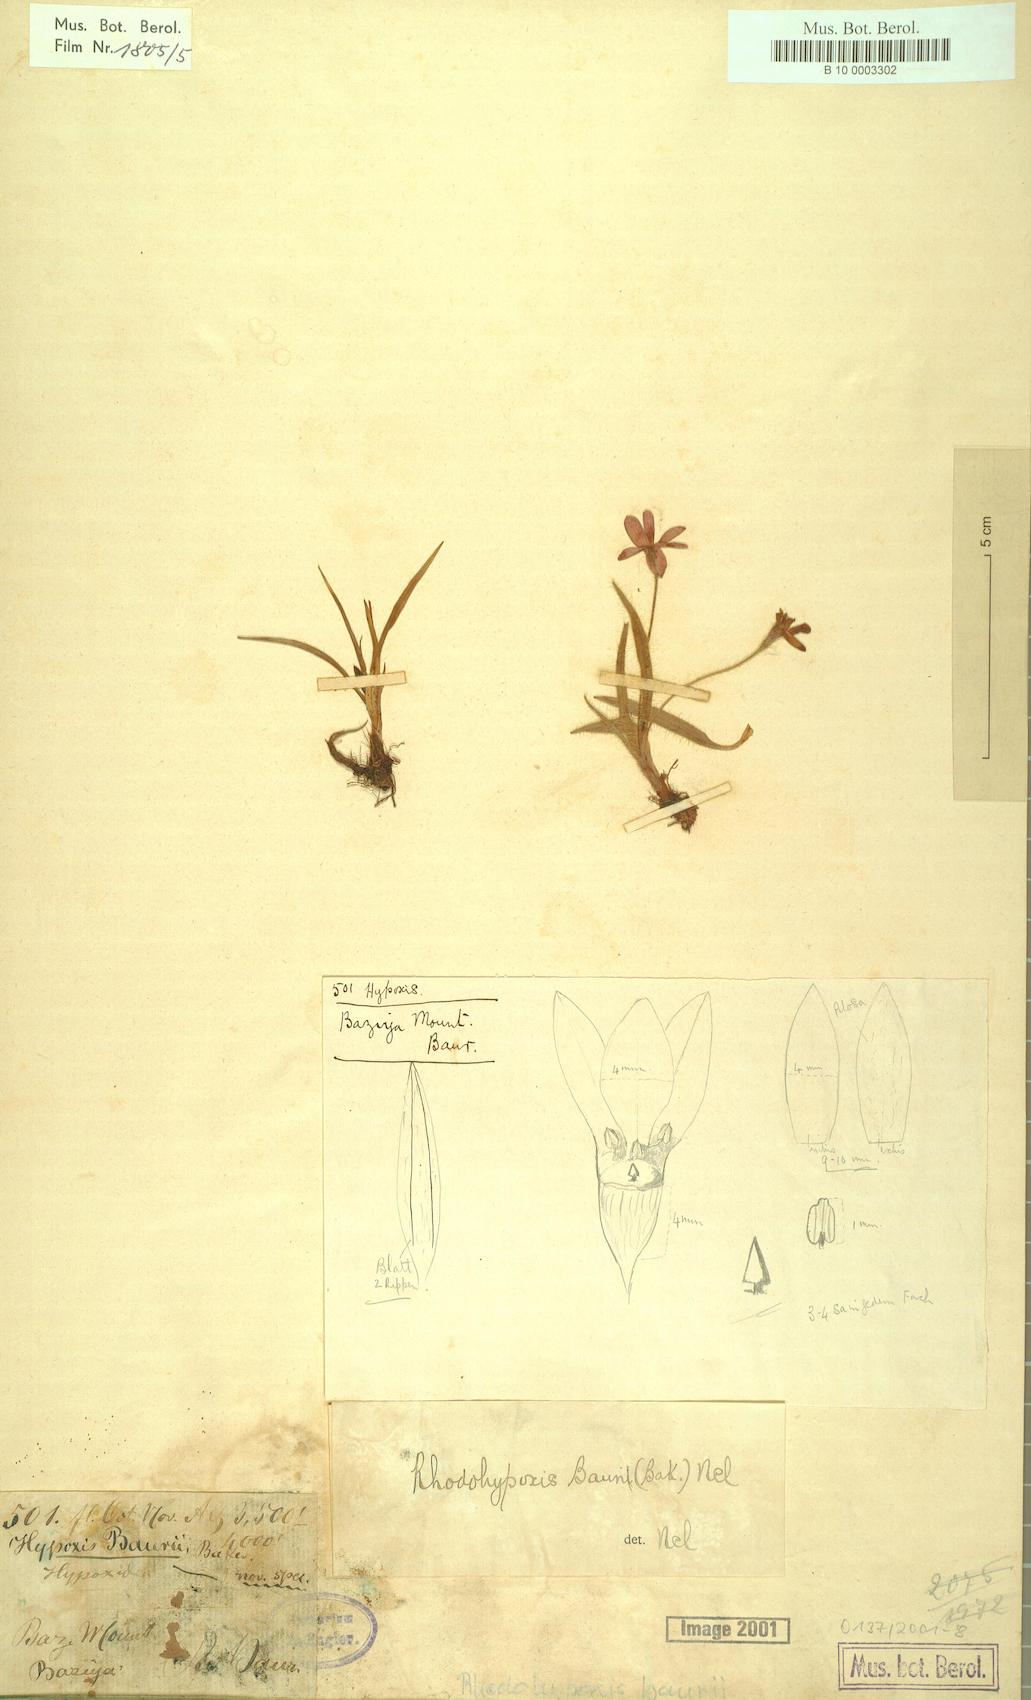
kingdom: Plantae
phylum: Tracheophyta
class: Liliopsida
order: Asparagales
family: Hypoxidaceae
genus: Hypoxis
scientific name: Hypoxis baurii
